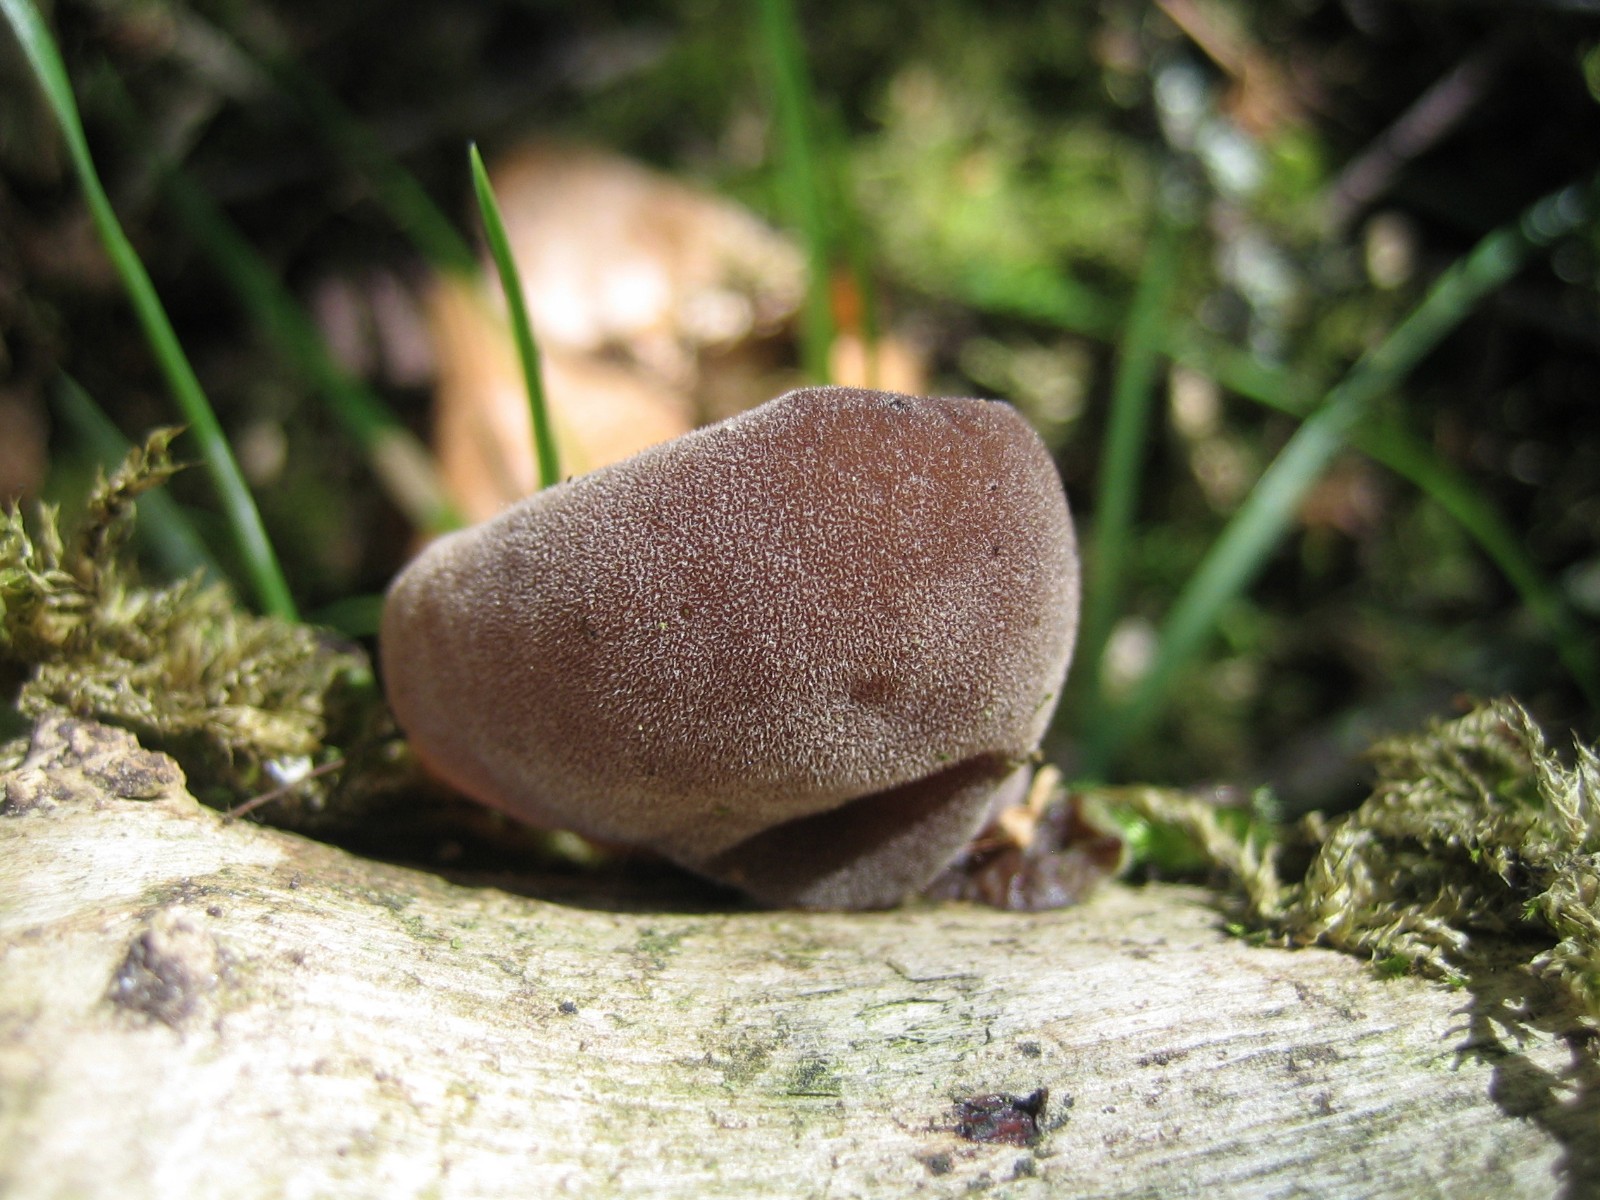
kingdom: Fungi
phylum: Basidiomycota
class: Agaricomycetes
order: Auriculariales
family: Auriculariaceae
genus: Auricularia
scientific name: Auricularia auricula-judae
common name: almindelig judasøre
